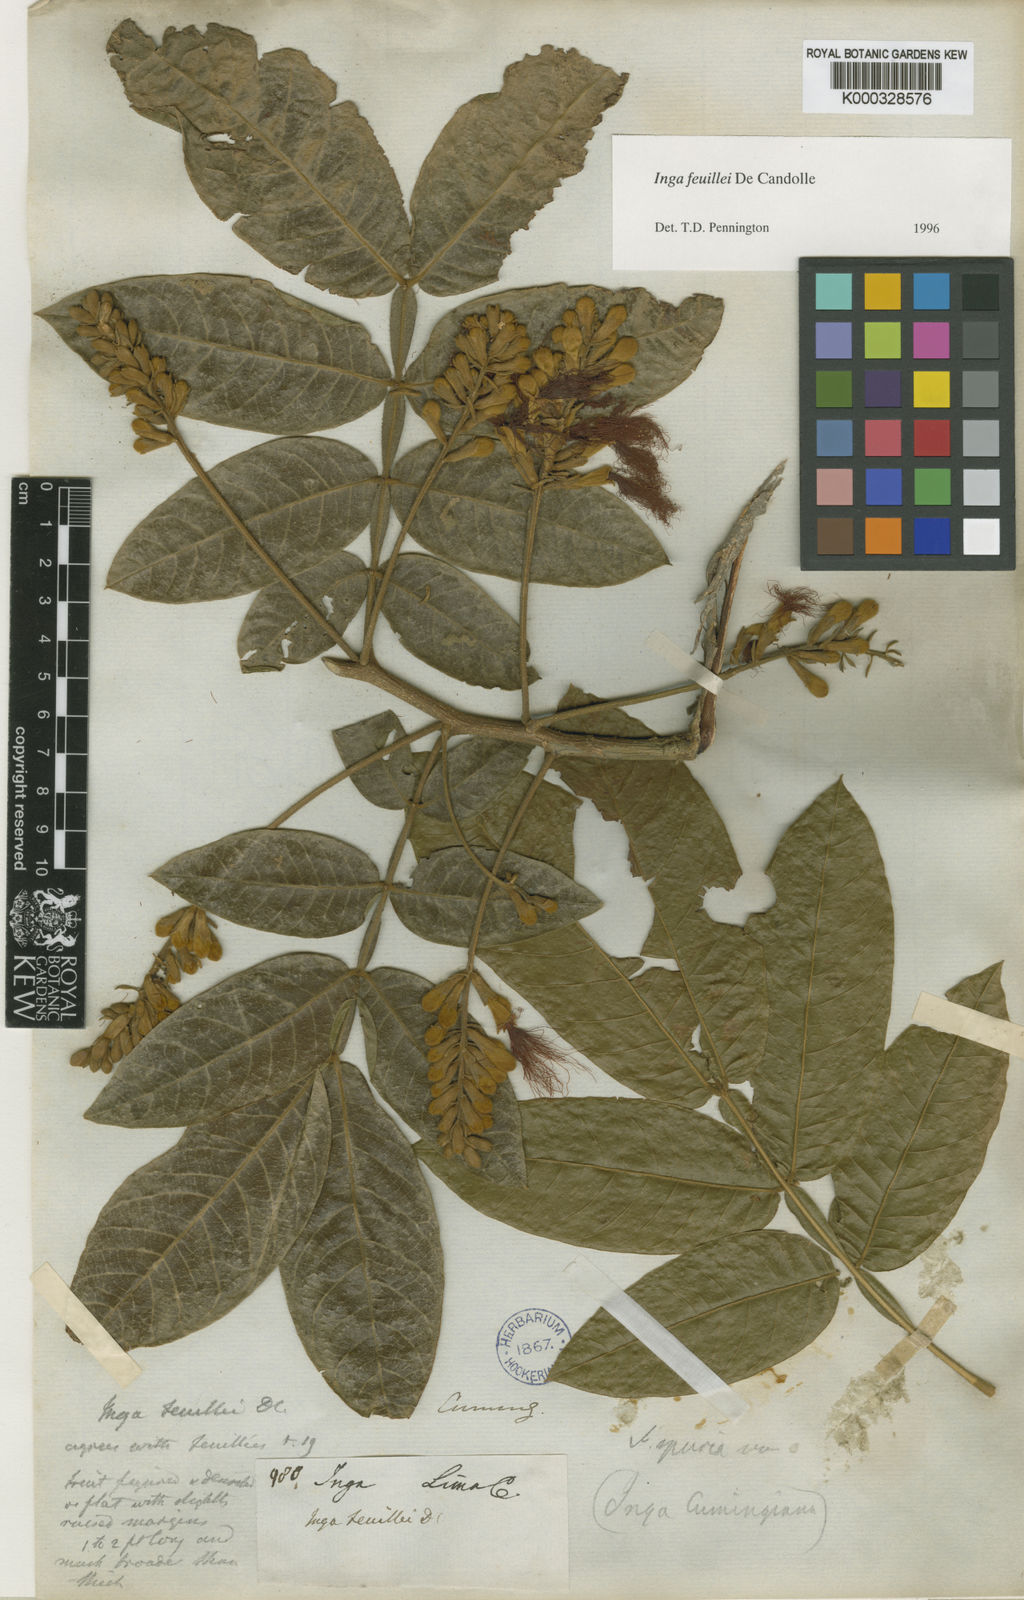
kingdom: Plantae
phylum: Tracheophyta
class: Magnoliopsida
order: Fabales
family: Fabaceae
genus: Inga
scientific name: Inga feuillei
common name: Ice cream bean
